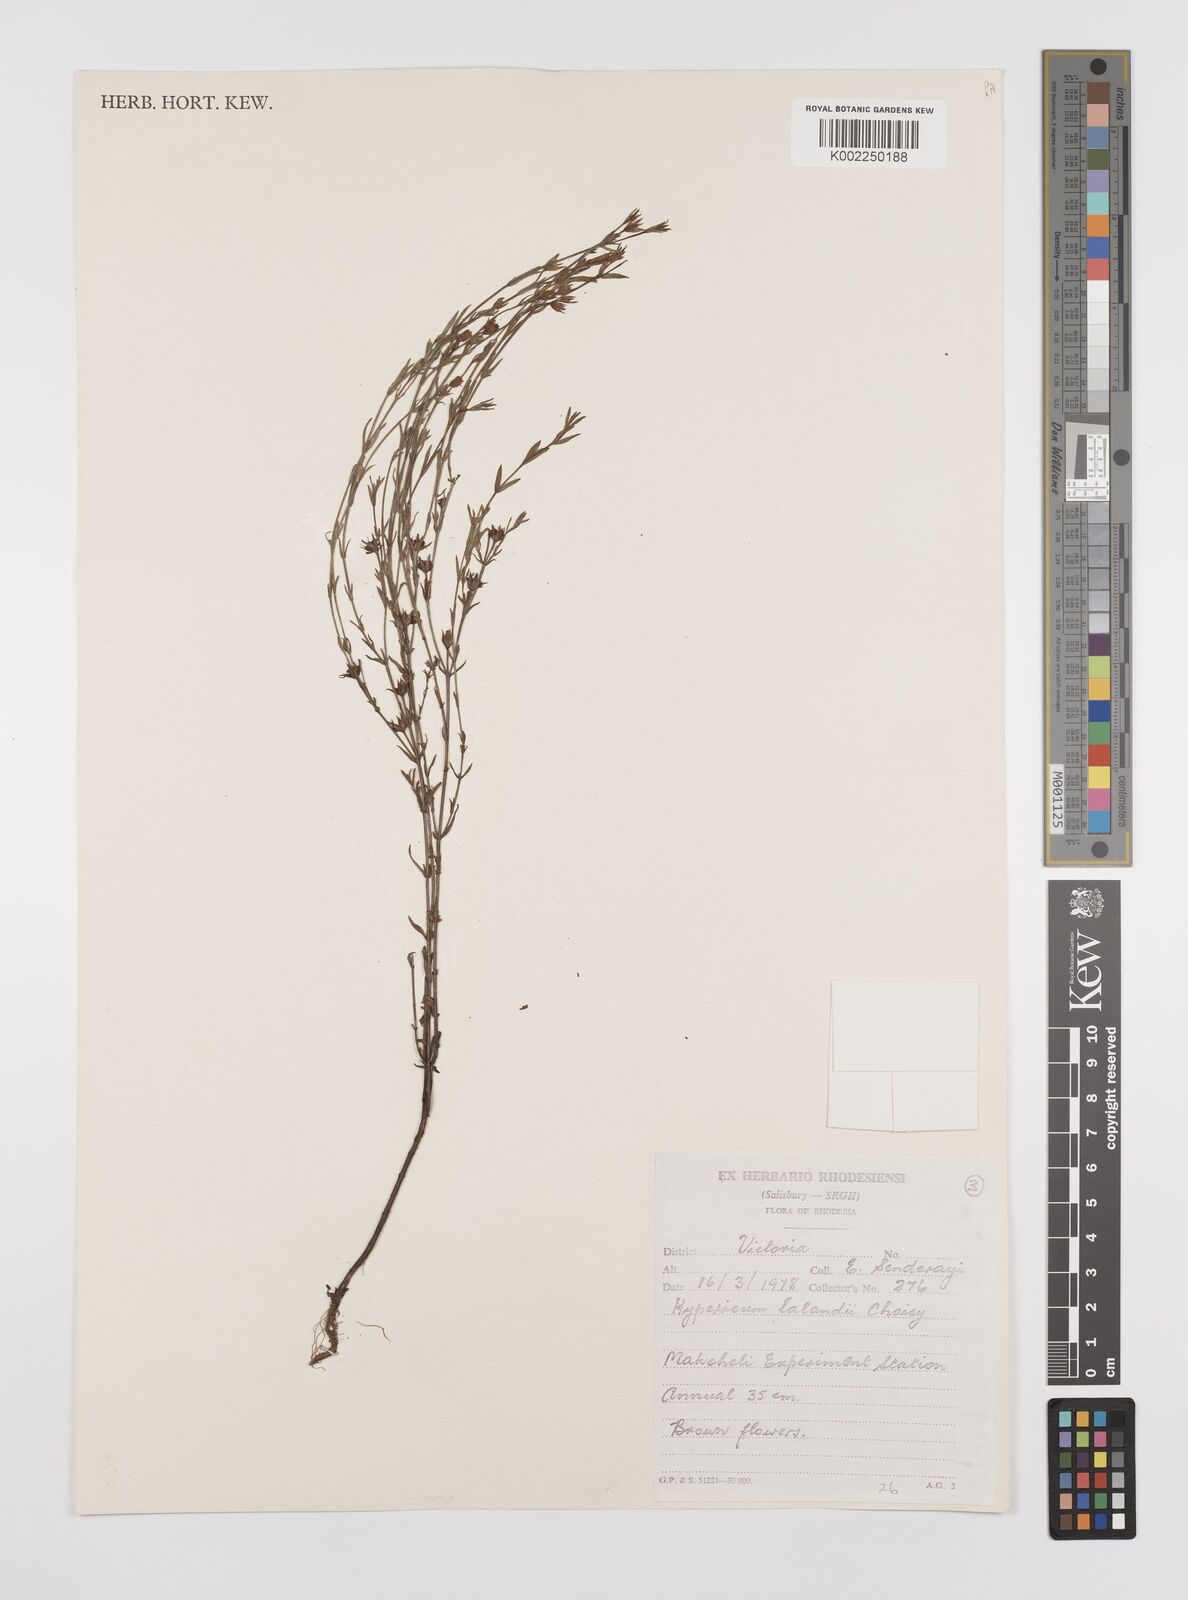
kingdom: Plantae
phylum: Tracheophyta
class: Magnoliopsida
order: Malpighiales
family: Hypericaceae
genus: Hypericum
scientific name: Hypericum lalandii
